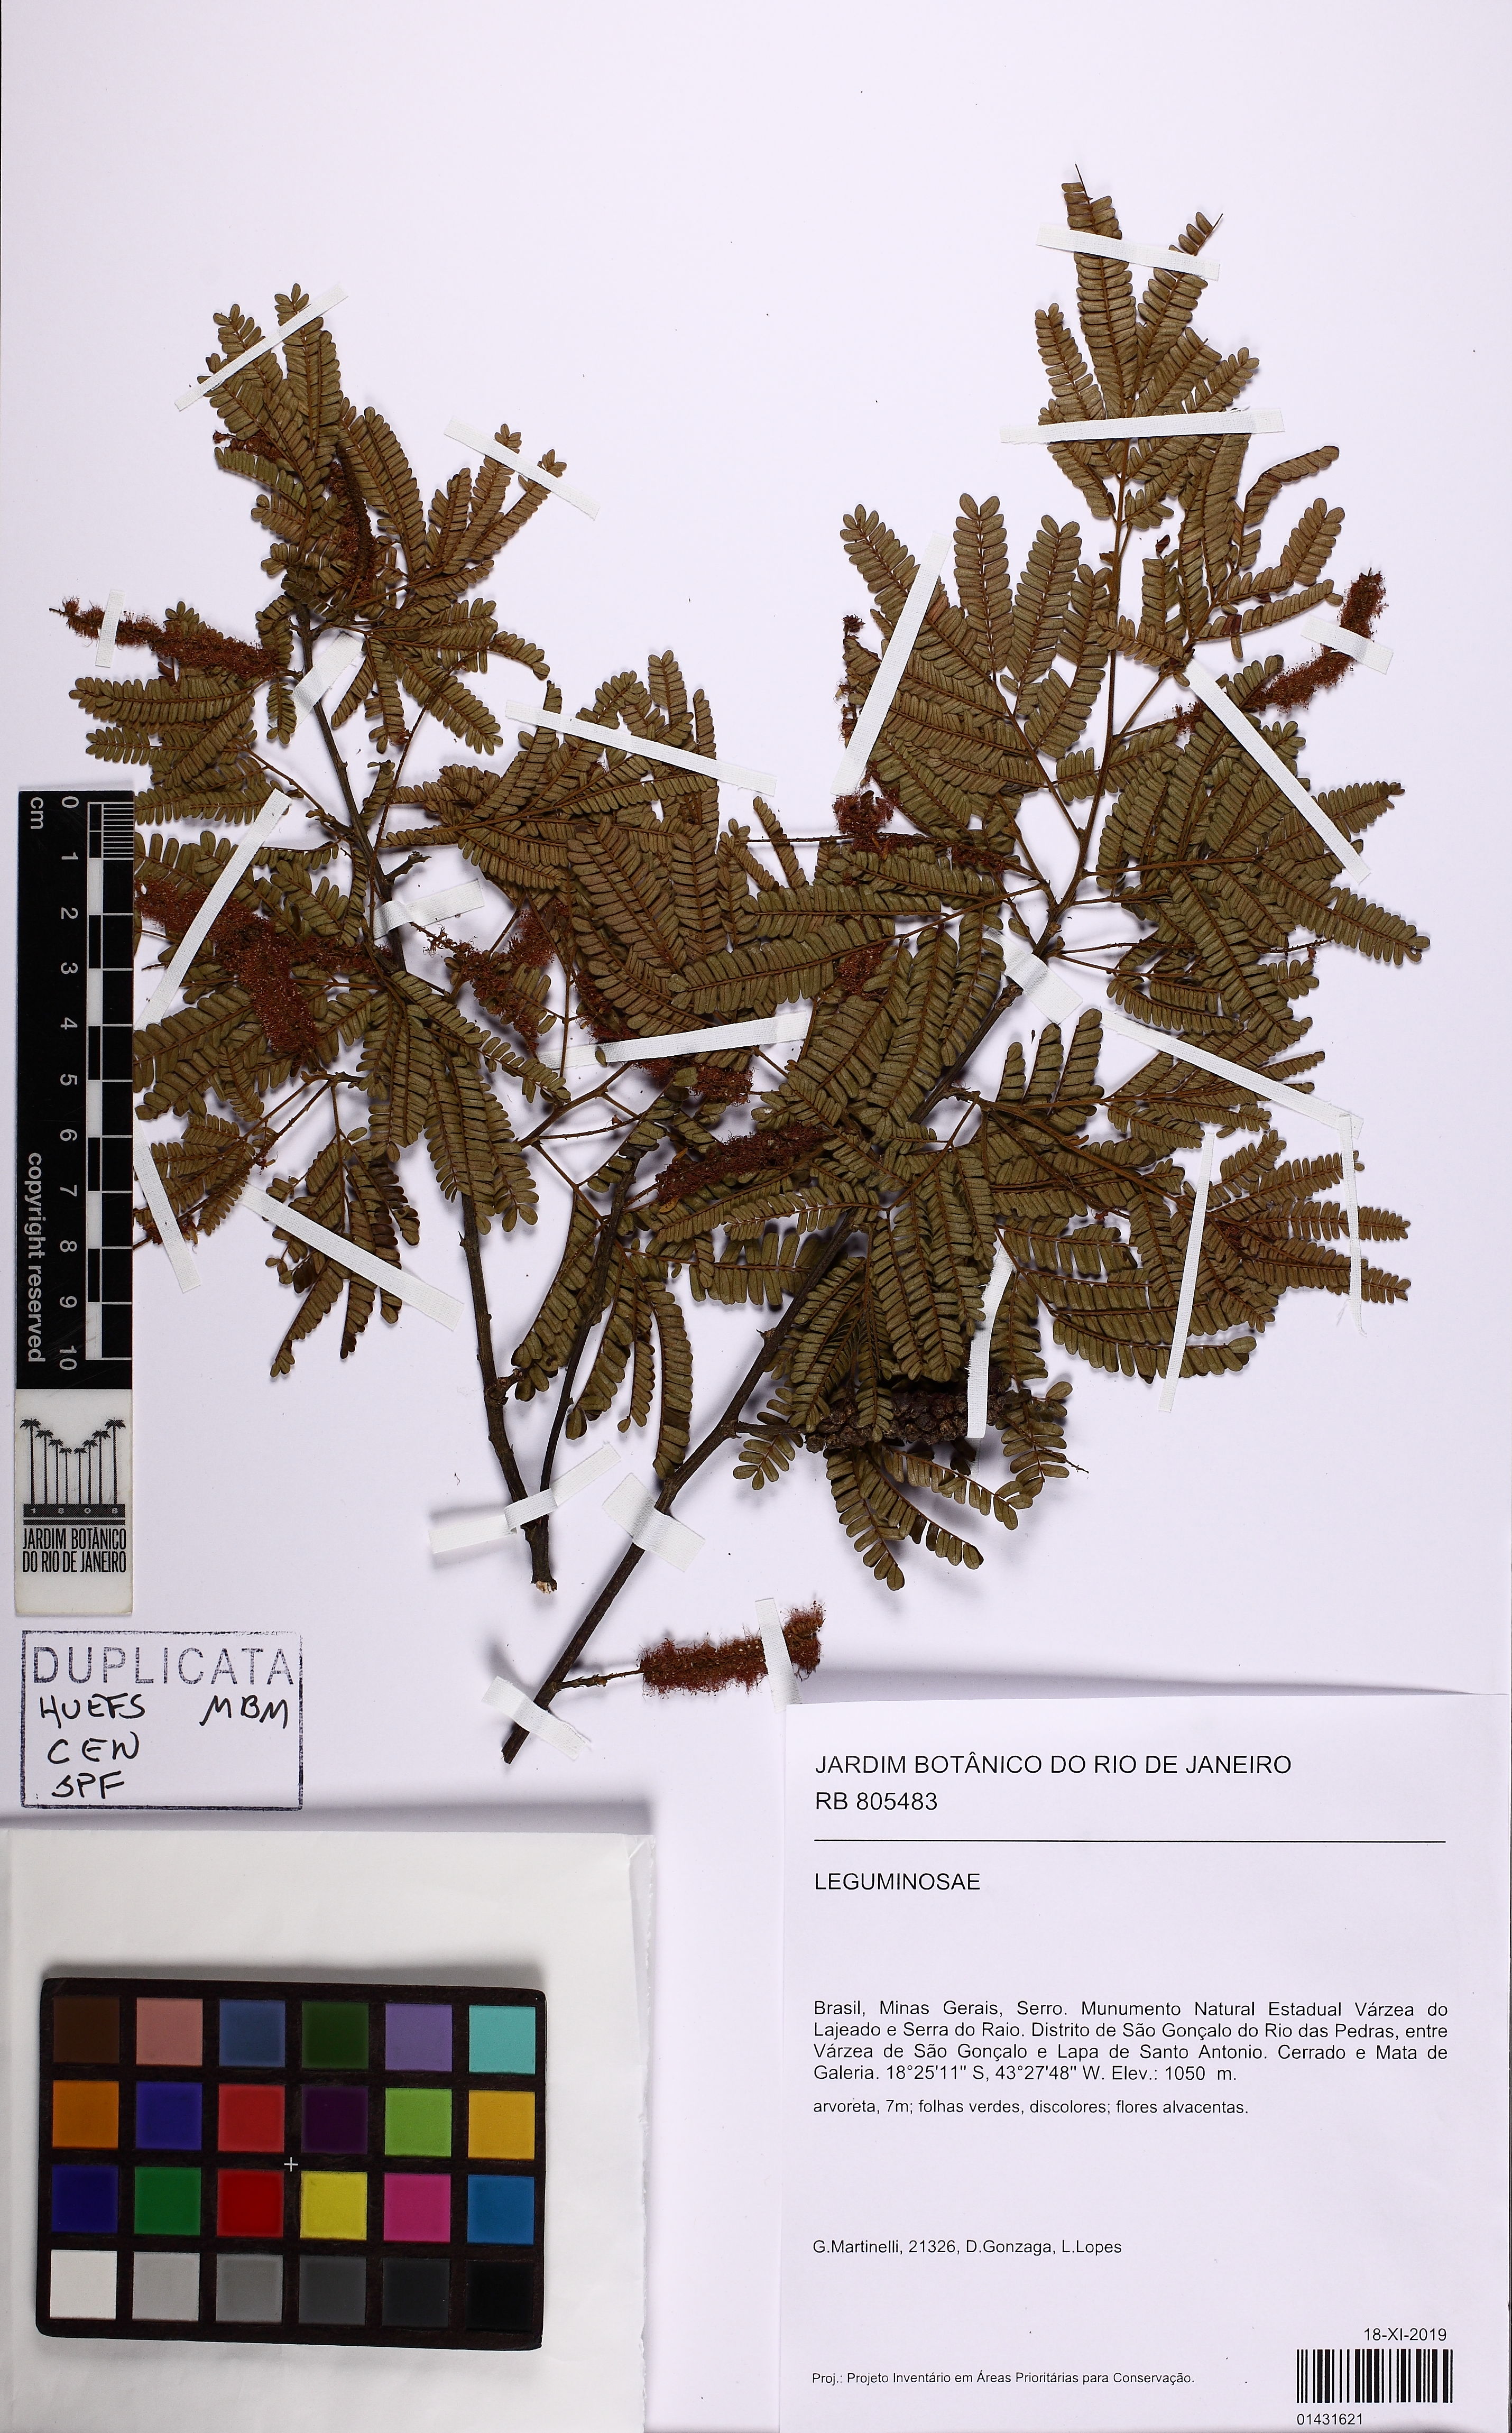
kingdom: Plantae
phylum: Tracheophyta
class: Magnoliopsida
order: Fabales
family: Fabaceae
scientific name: Fabaceae
